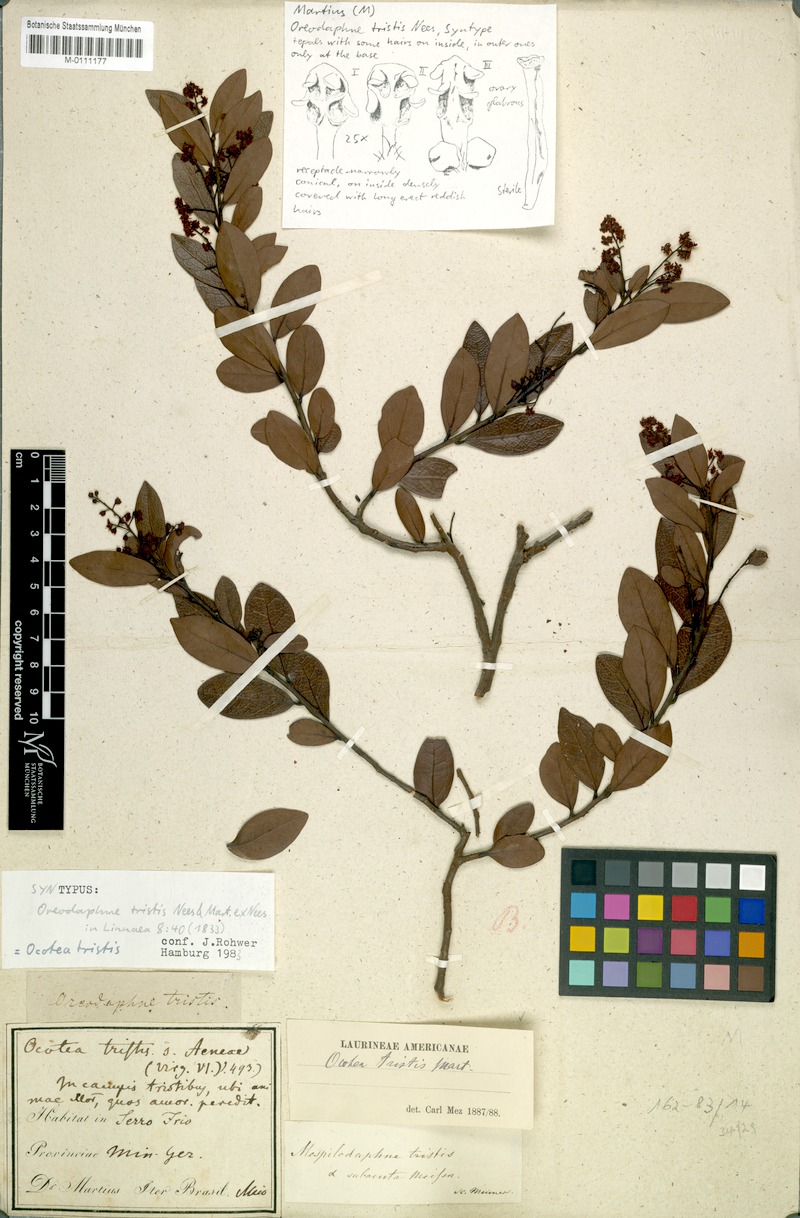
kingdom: Plantae
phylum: Tracheophyta
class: Magnoliopsida
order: Laurales
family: Lauraceae
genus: Mespilodaphne
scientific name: Mespilodaphne tristis
